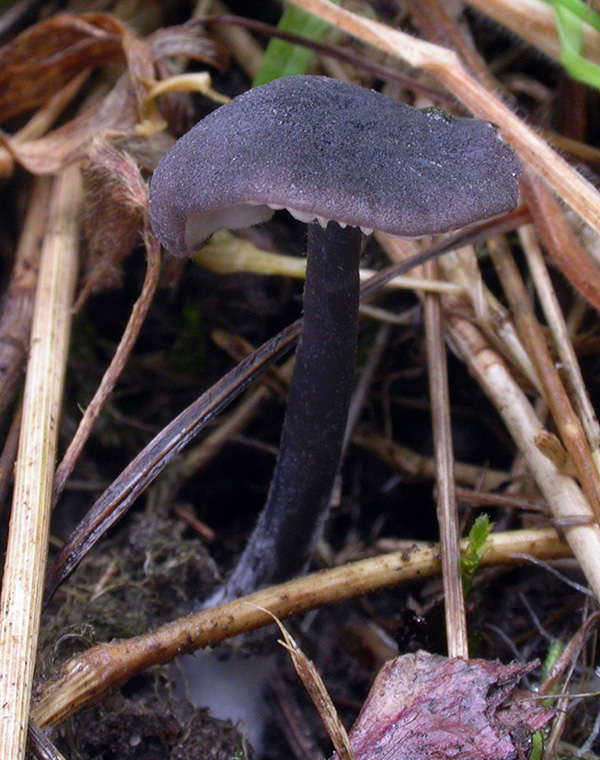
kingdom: Fungi
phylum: Basidiomycota
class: Agaricomycetes
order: Agaricales
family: Entolomataceae
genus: Entoloma
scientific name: Entoloma chalybaeum
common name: blåbladet rødblad
